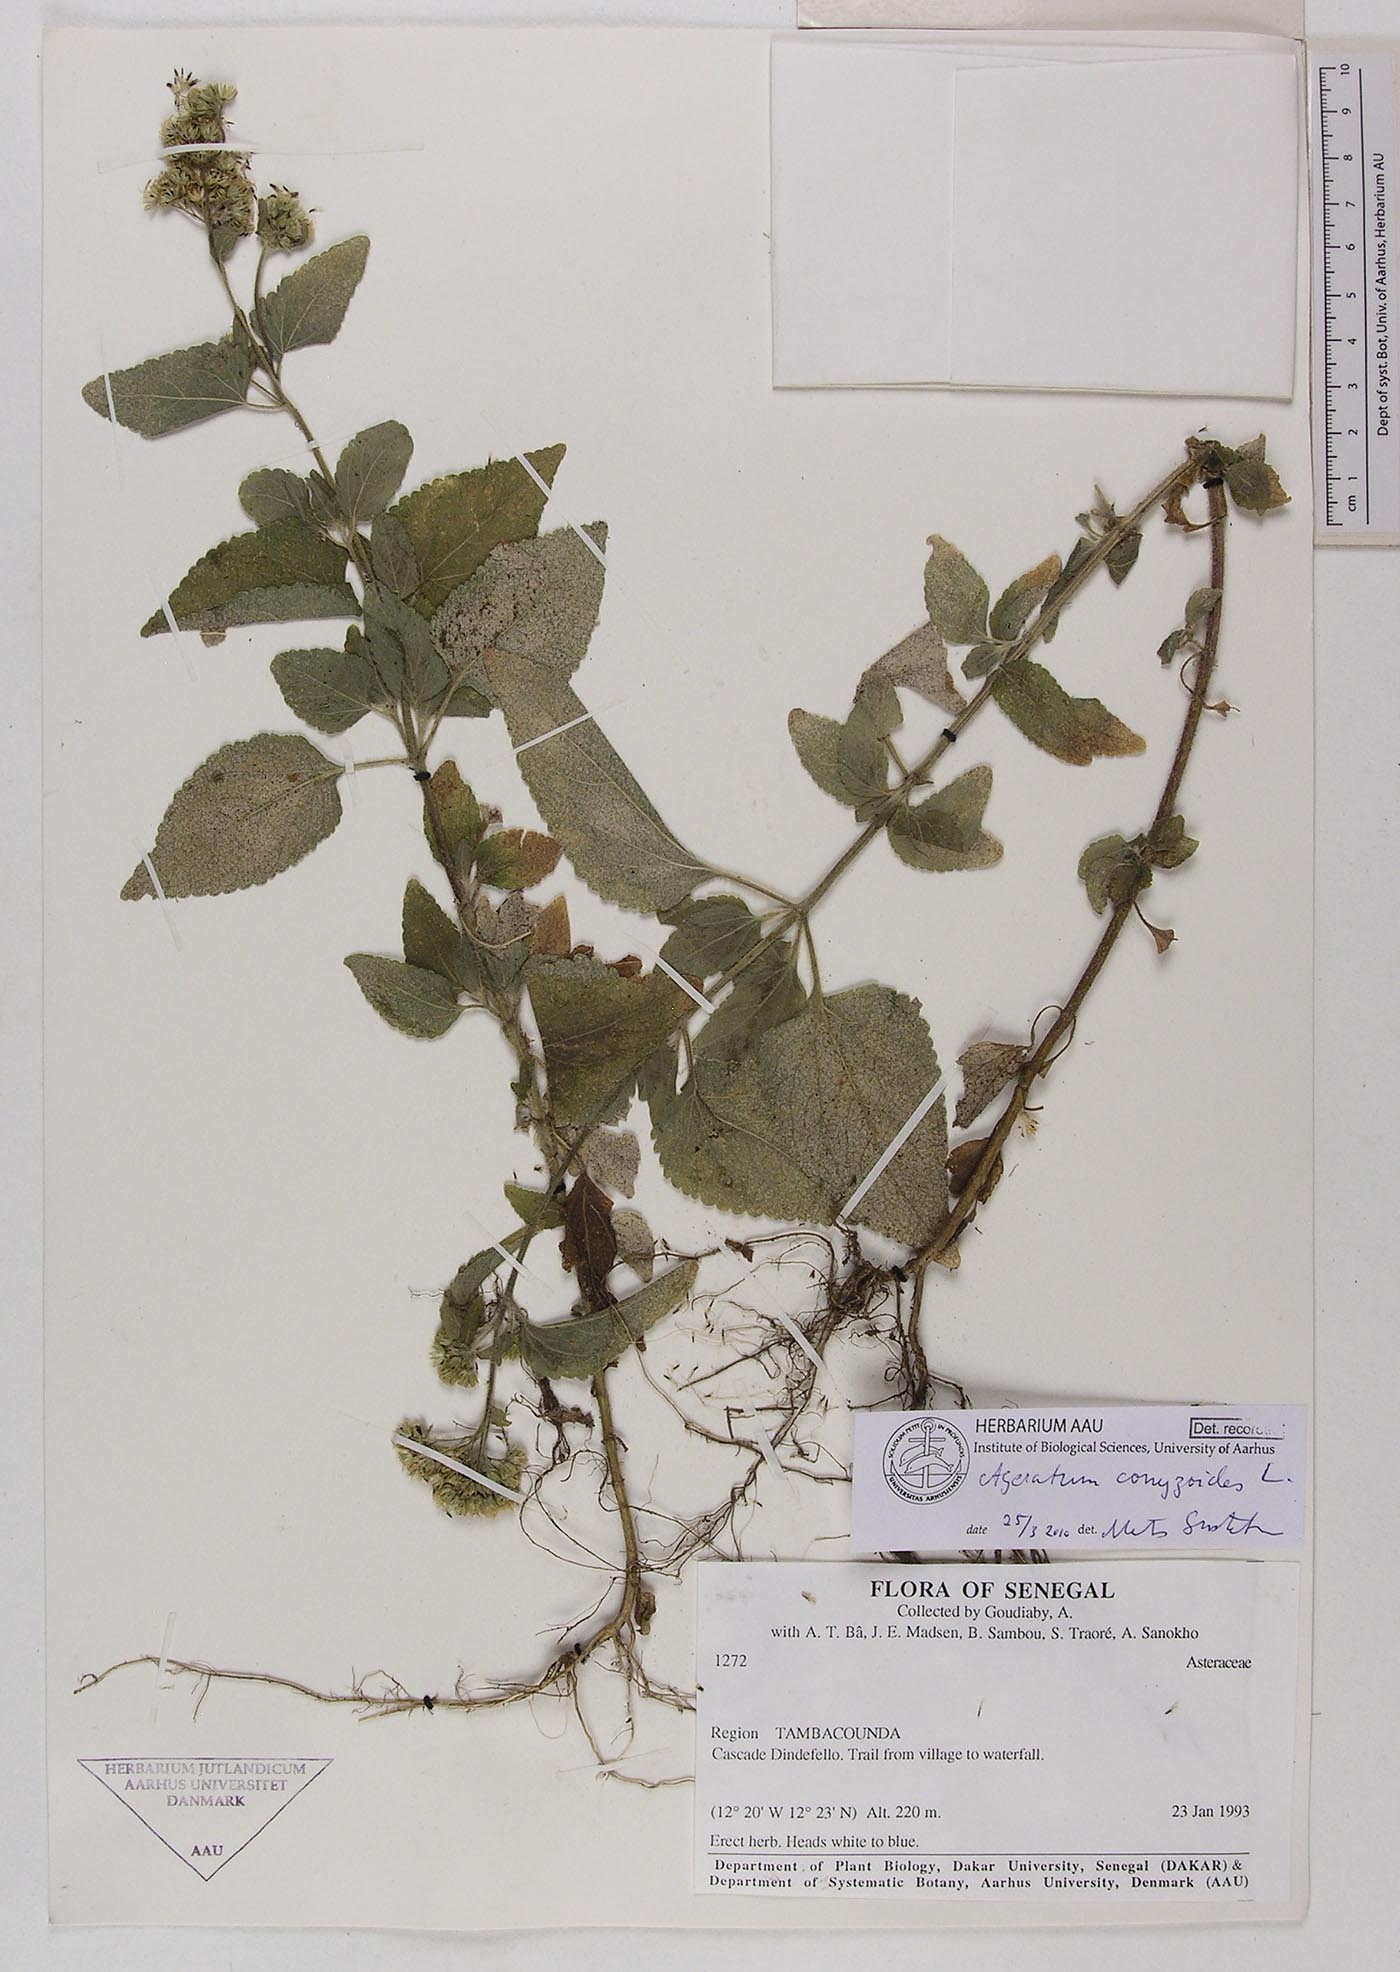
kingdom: Plantae
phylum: Tracheophyta
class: Magnoliopsida
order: Asterales
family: Asteraceae
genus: Ageratum
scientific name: Ageratum conyzoides
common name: Tropical whiteweed
